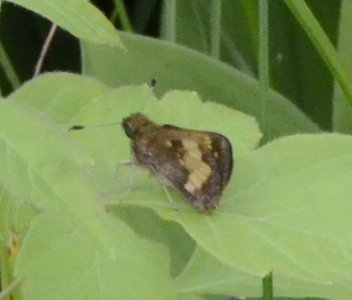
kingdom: Animalia
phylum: Arthropoda
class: Insecta
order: Lepidoptera
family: Hesperiidae
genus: Lon
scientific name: Lon hobomok
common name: Hobomok Skipper
